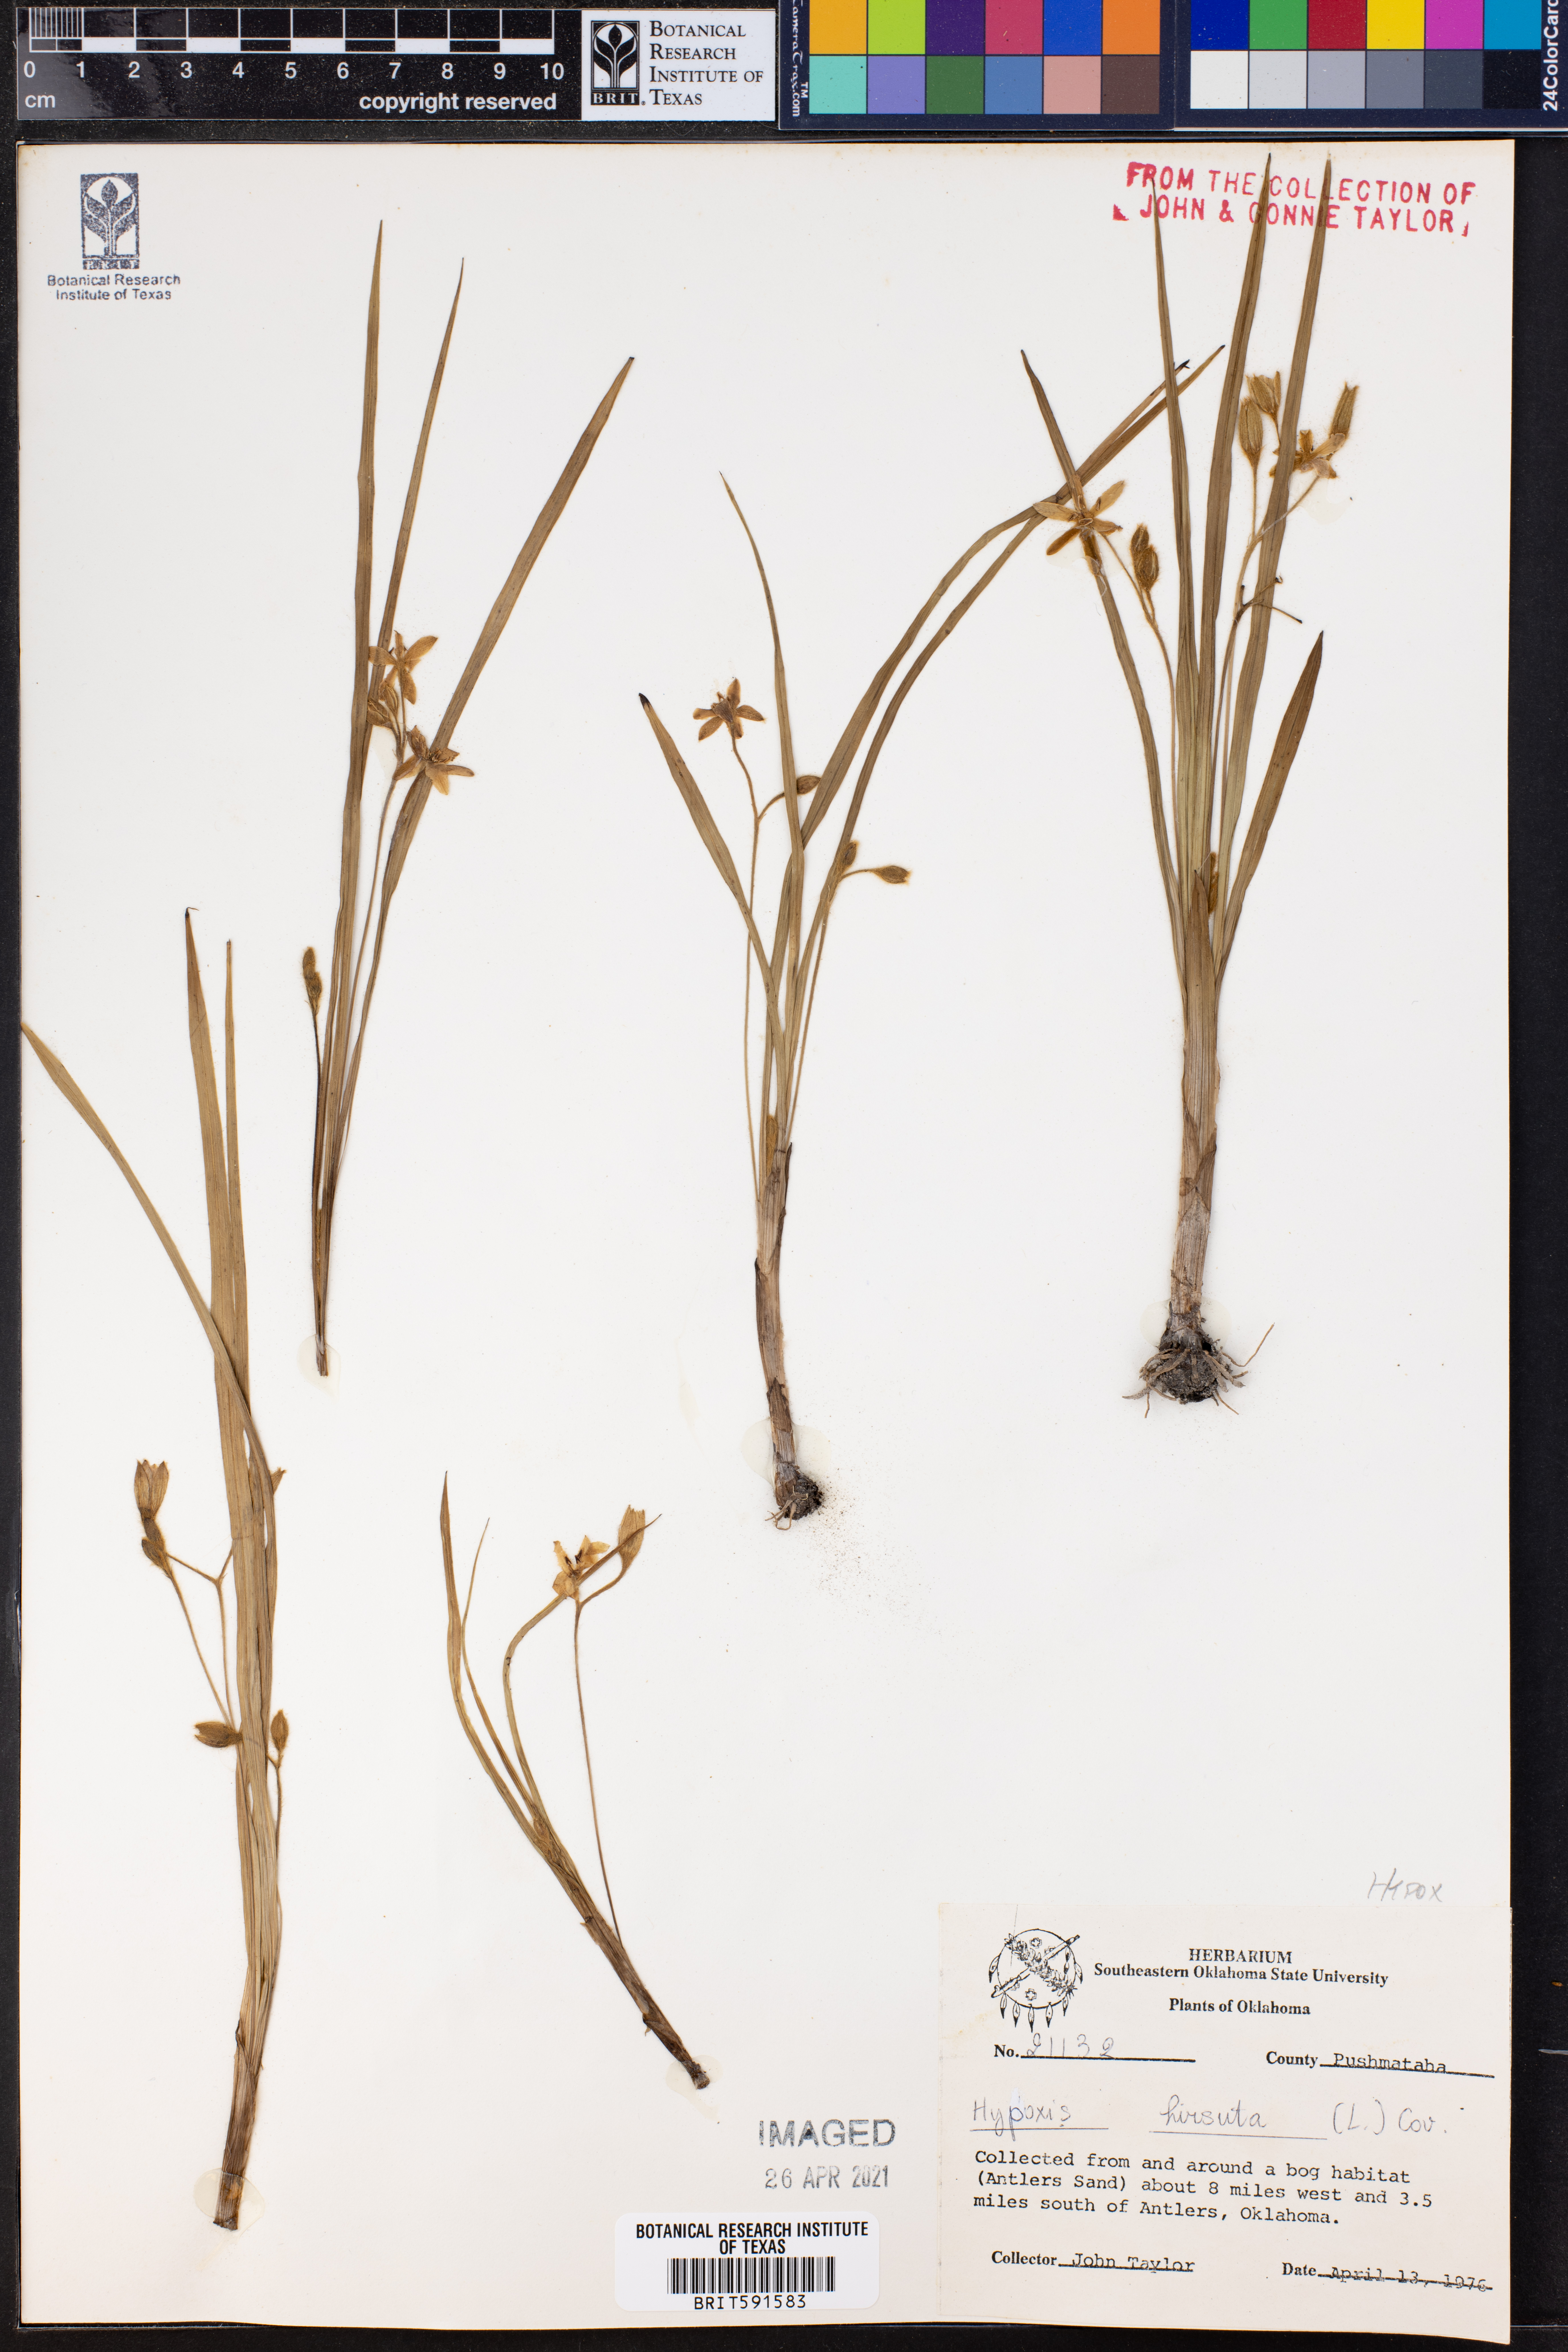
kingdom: Plantae
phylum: Tracheophyta
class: Liliopsida
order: Asparagales
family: Hypoxidaceae
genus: Hypoxis
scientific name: Hypoxis hirsuta
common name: Common goldstar
